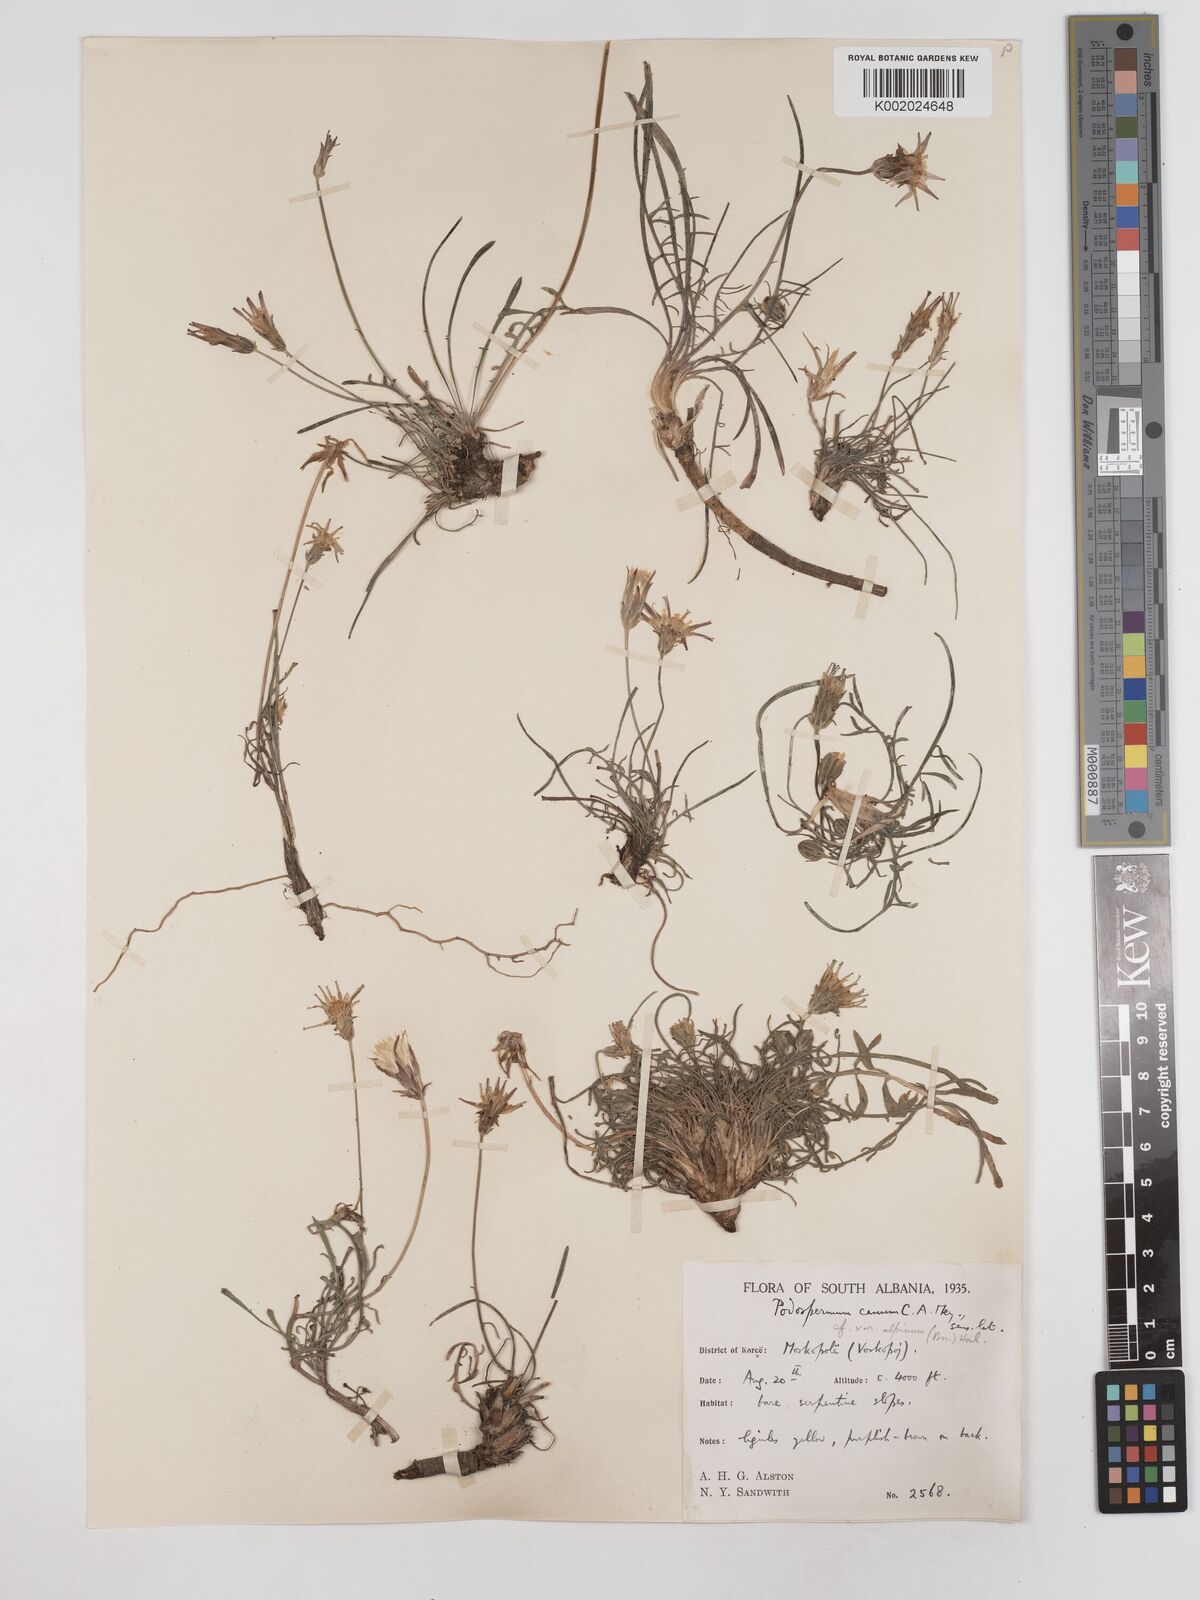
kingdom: Plantae
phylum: Tracheophyta
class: Magnoliopsida
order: Asterales
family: Asteraceae
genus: Scorzonera
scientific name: Scorzonera cana
